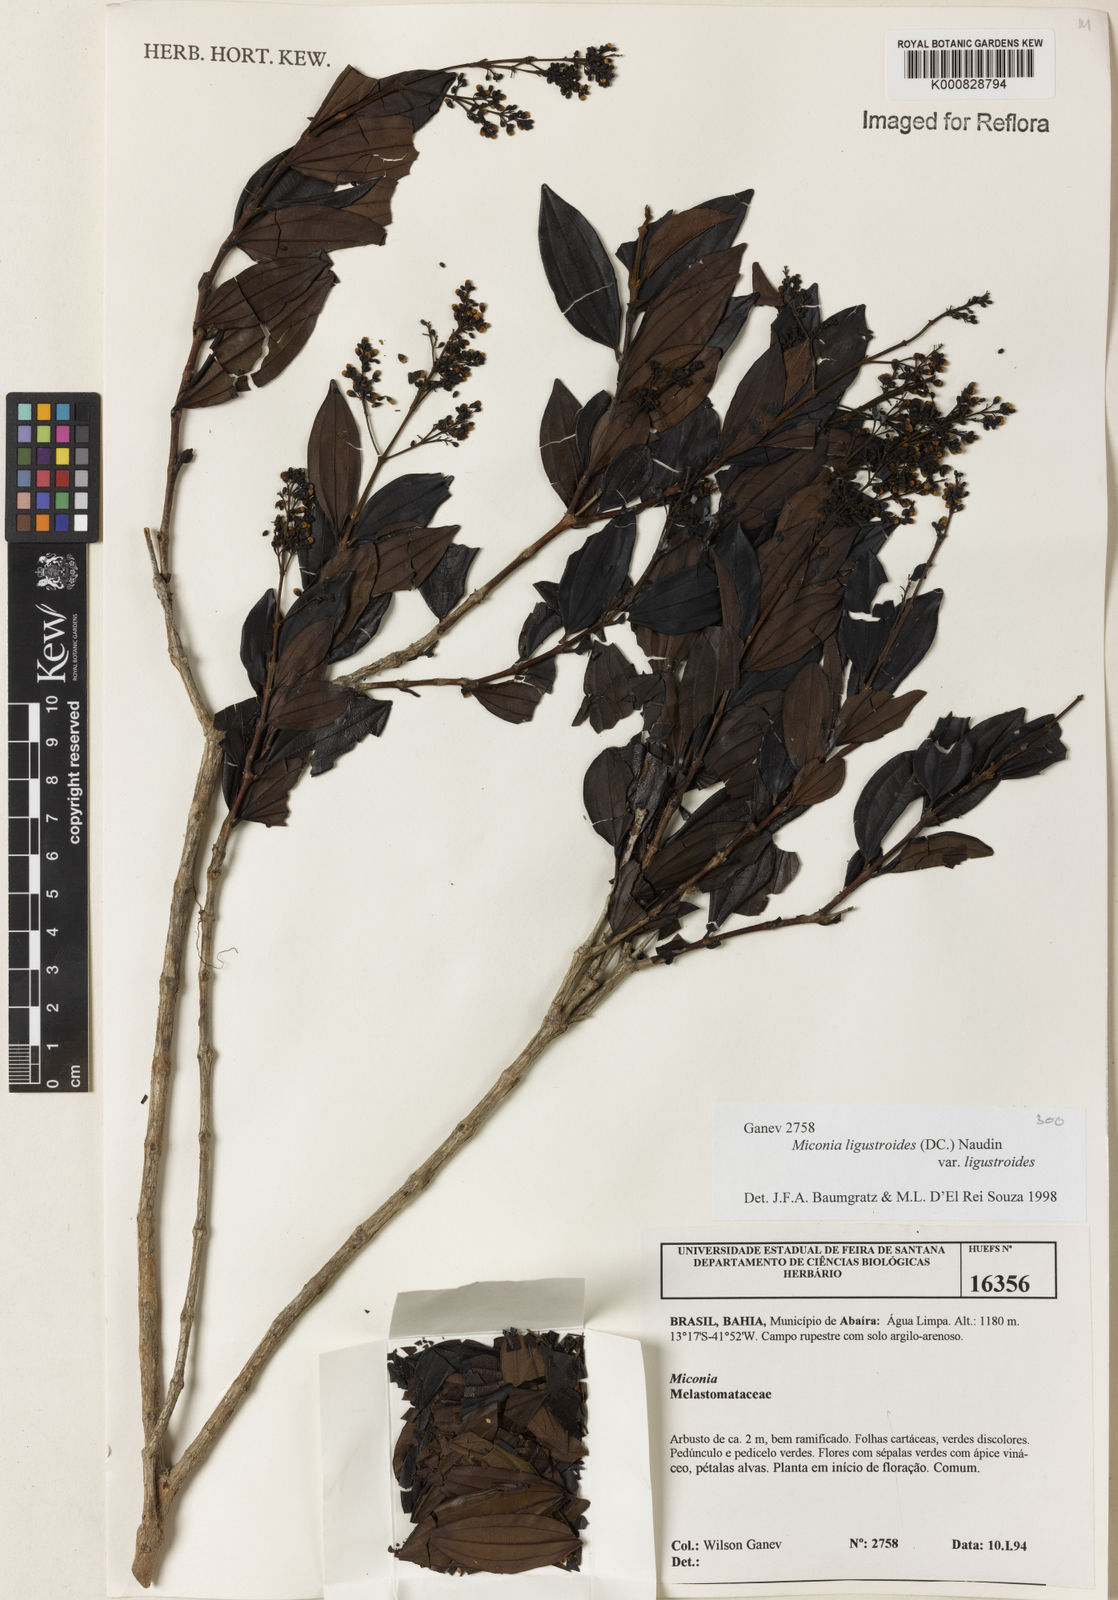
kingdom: Plantae
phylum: Tracheophyta
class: Magnoliopsida
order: Myrtales
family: Melastomataceae
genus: Miconia
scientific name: Miconia ligustroides
